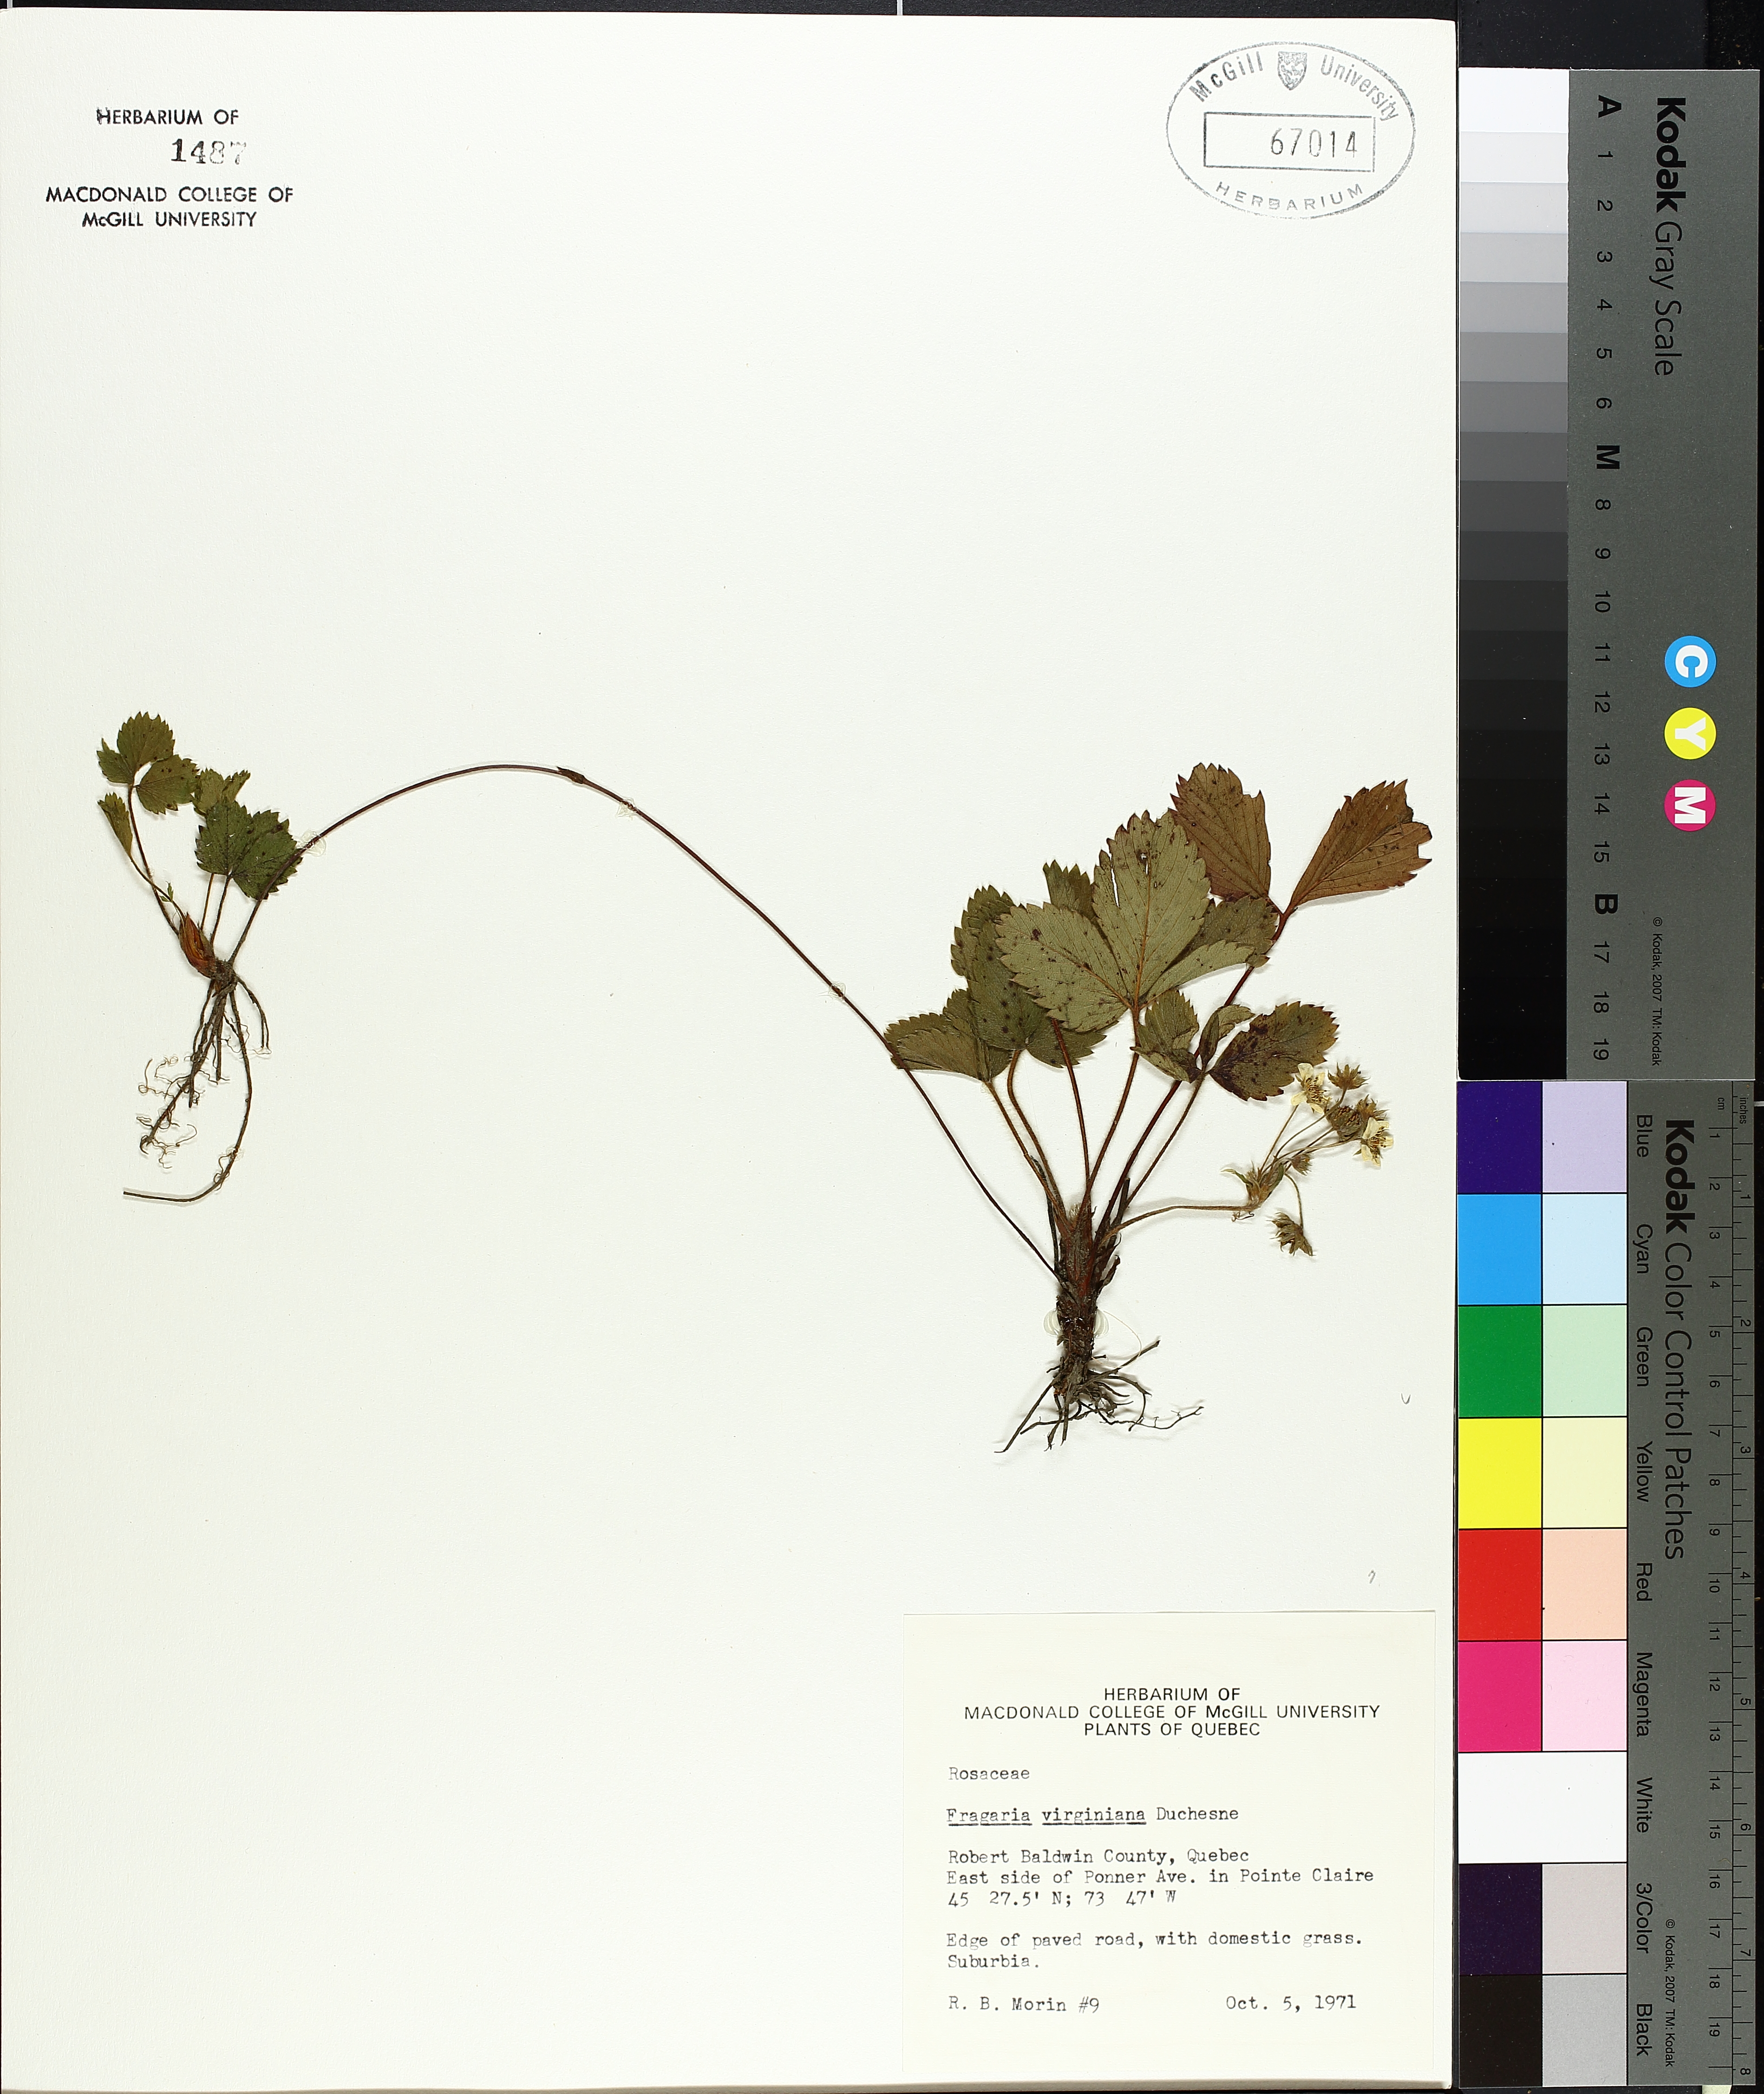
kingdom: Plantae
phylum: Tracheophyta
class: Magnoliopsida
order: Rosales
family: Rosaceae
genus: Fragaria
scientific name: Fragaria virginiana
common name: Thickleaved wild strawberry
